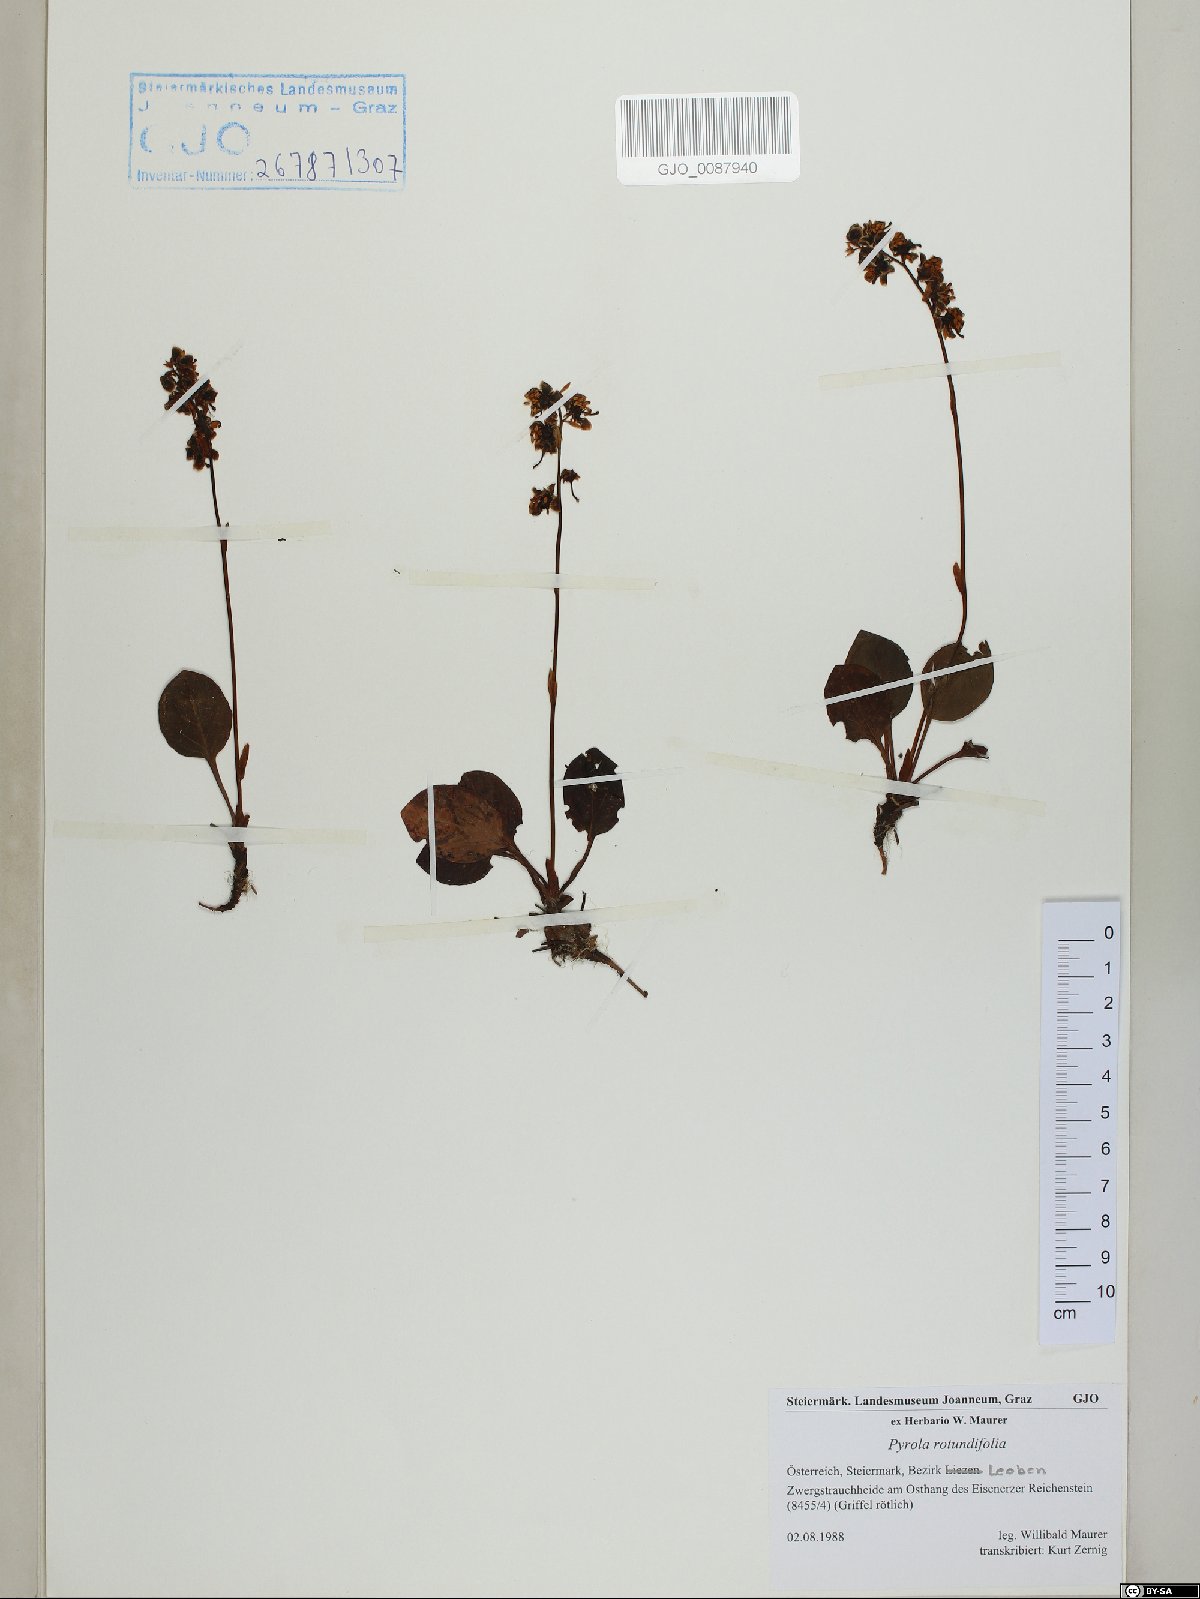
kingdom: Plantae
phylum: Tracheophyta
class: Magnoliopsida
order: Ericales
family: Ericaceae
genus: Pyrola
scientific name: Pyrola rotundifolia
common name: Round-leaved wintergreen
